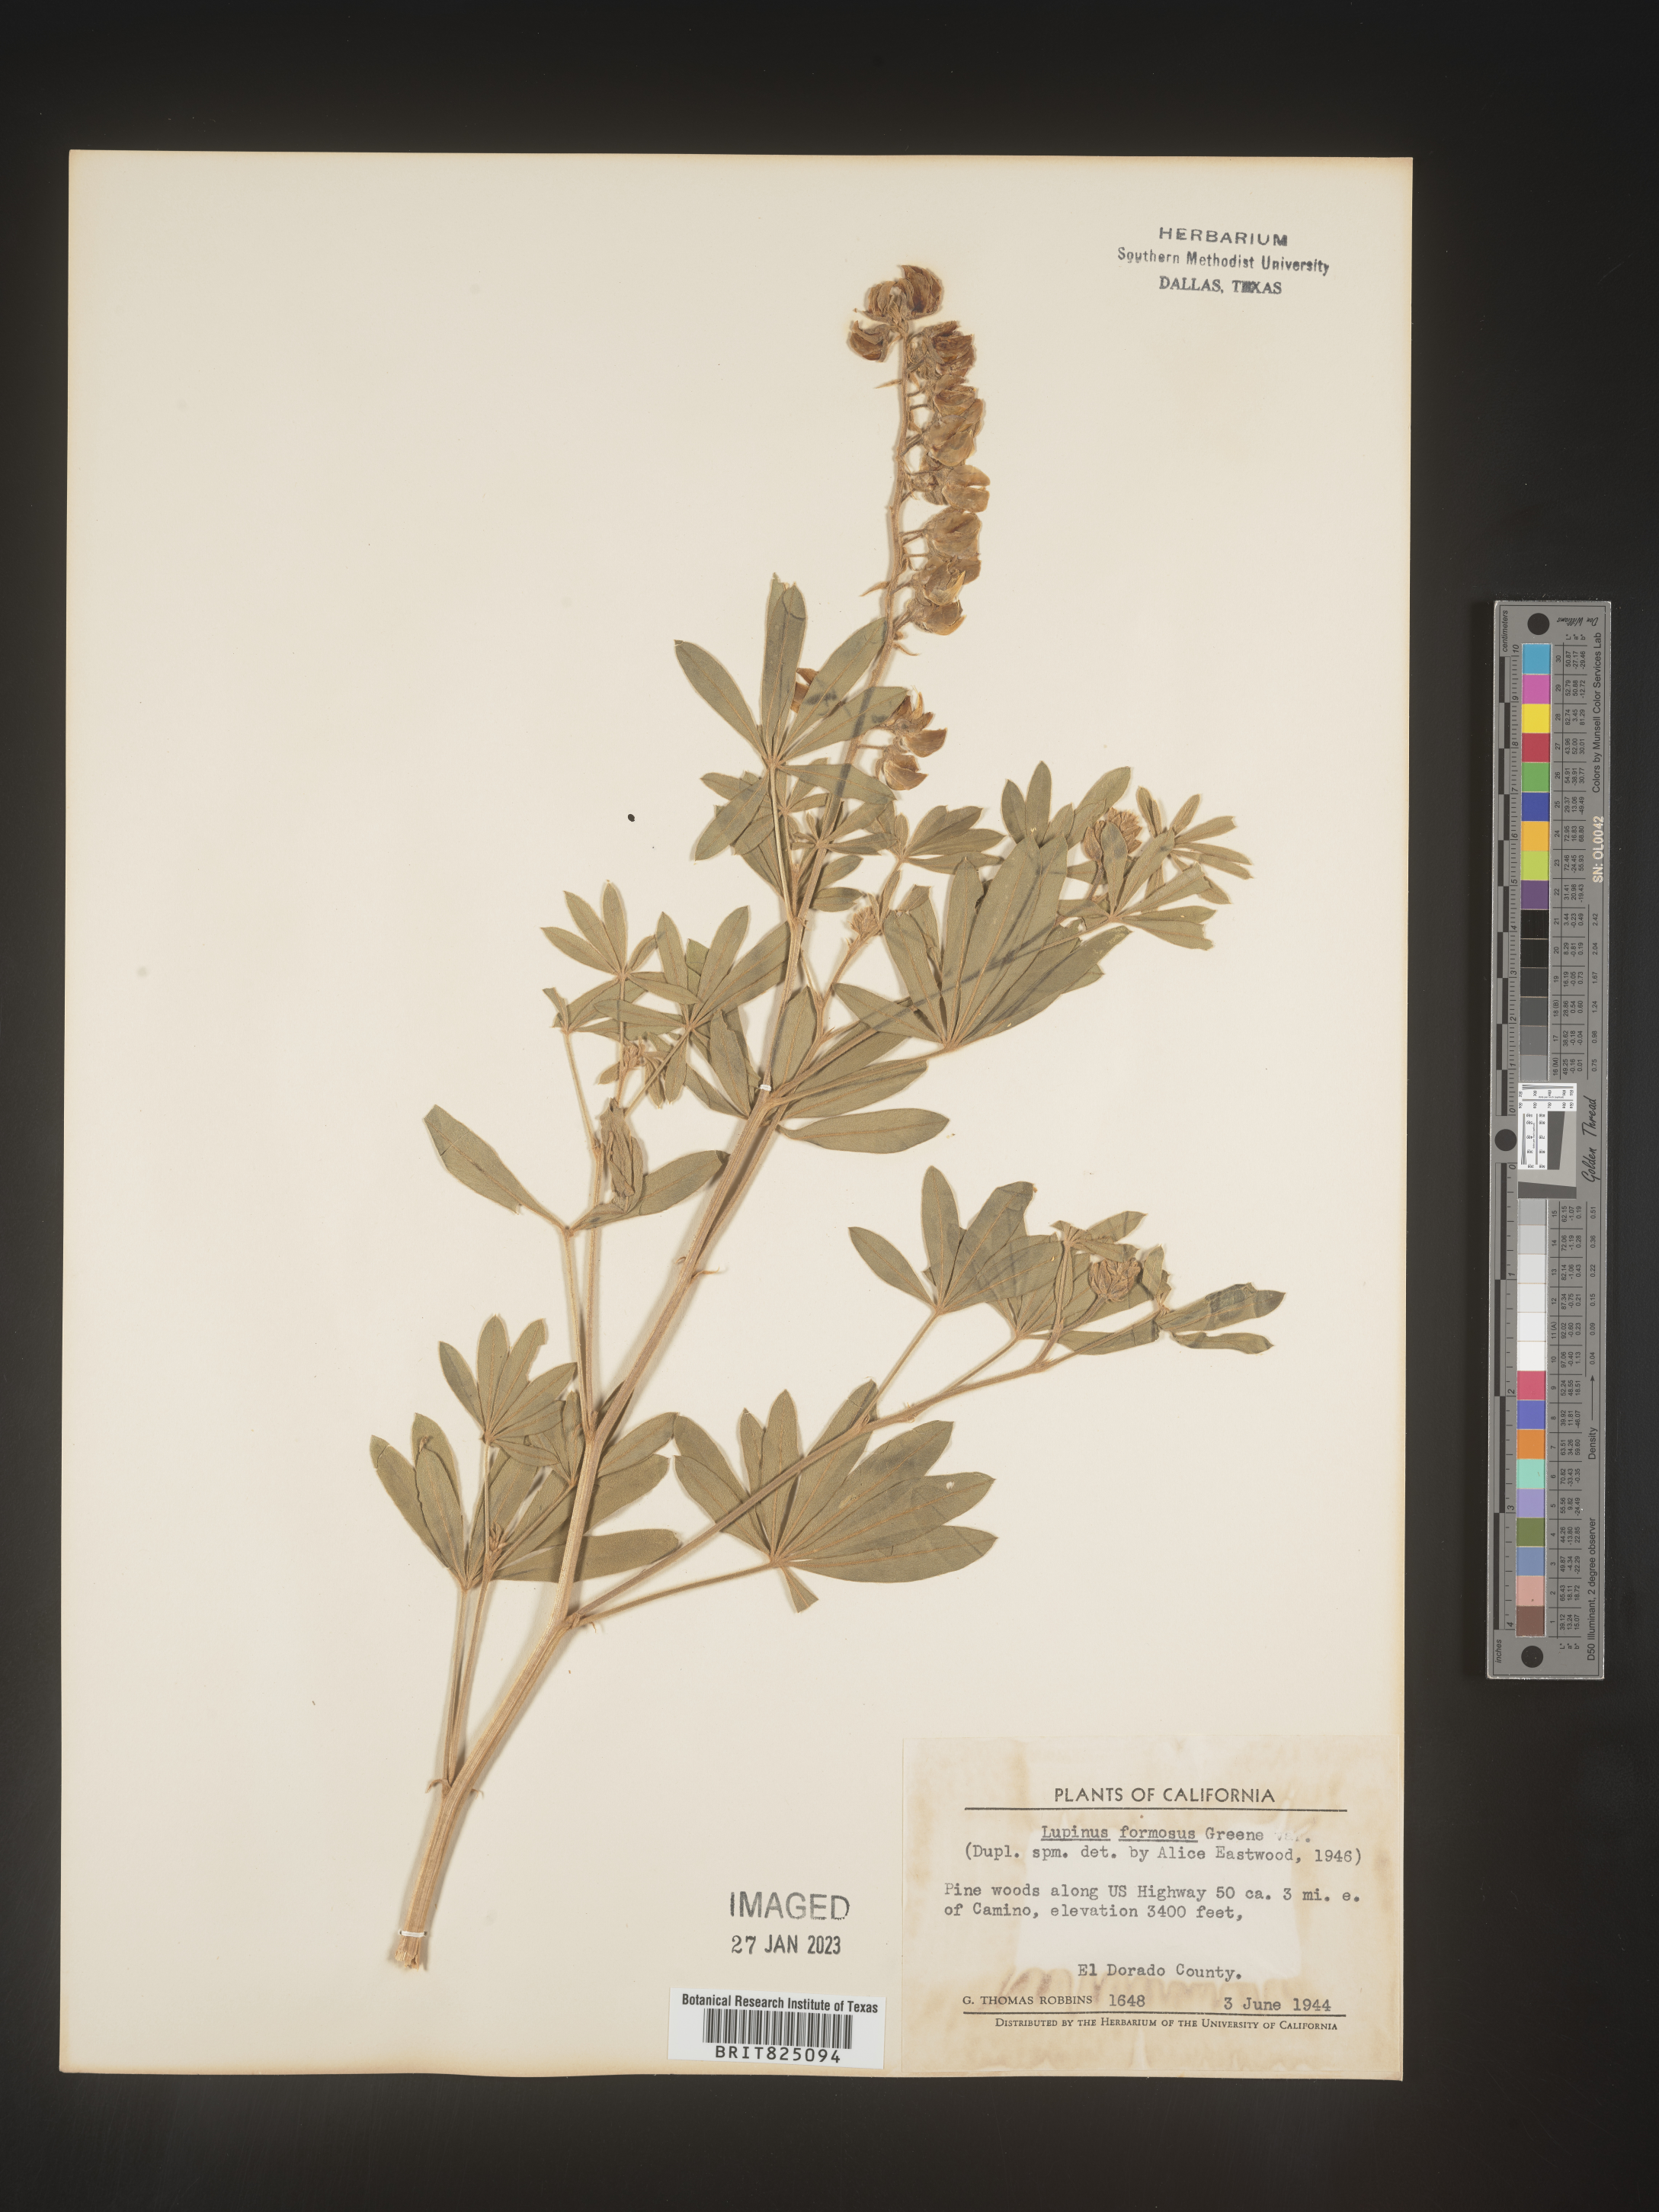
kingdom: Plantae
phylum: Tracheophyta
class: Magnoliopsida
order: Fabales
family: Fabaceae
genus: Lupinus
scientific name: Lupinus
